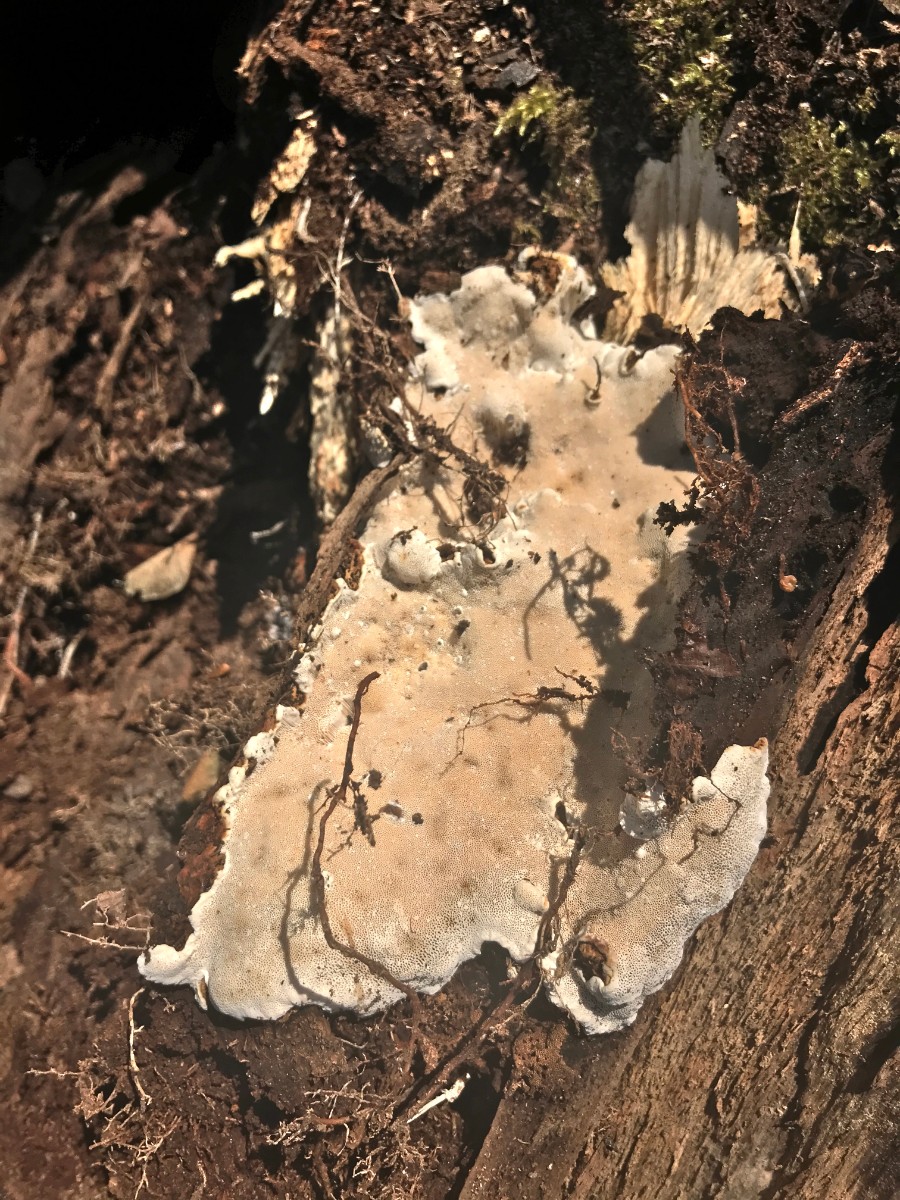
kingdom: Fungi
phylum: Basidiomycota
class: Agaricomycetes
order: Polyporales
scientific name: Polyporales
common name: poresvampordenen
